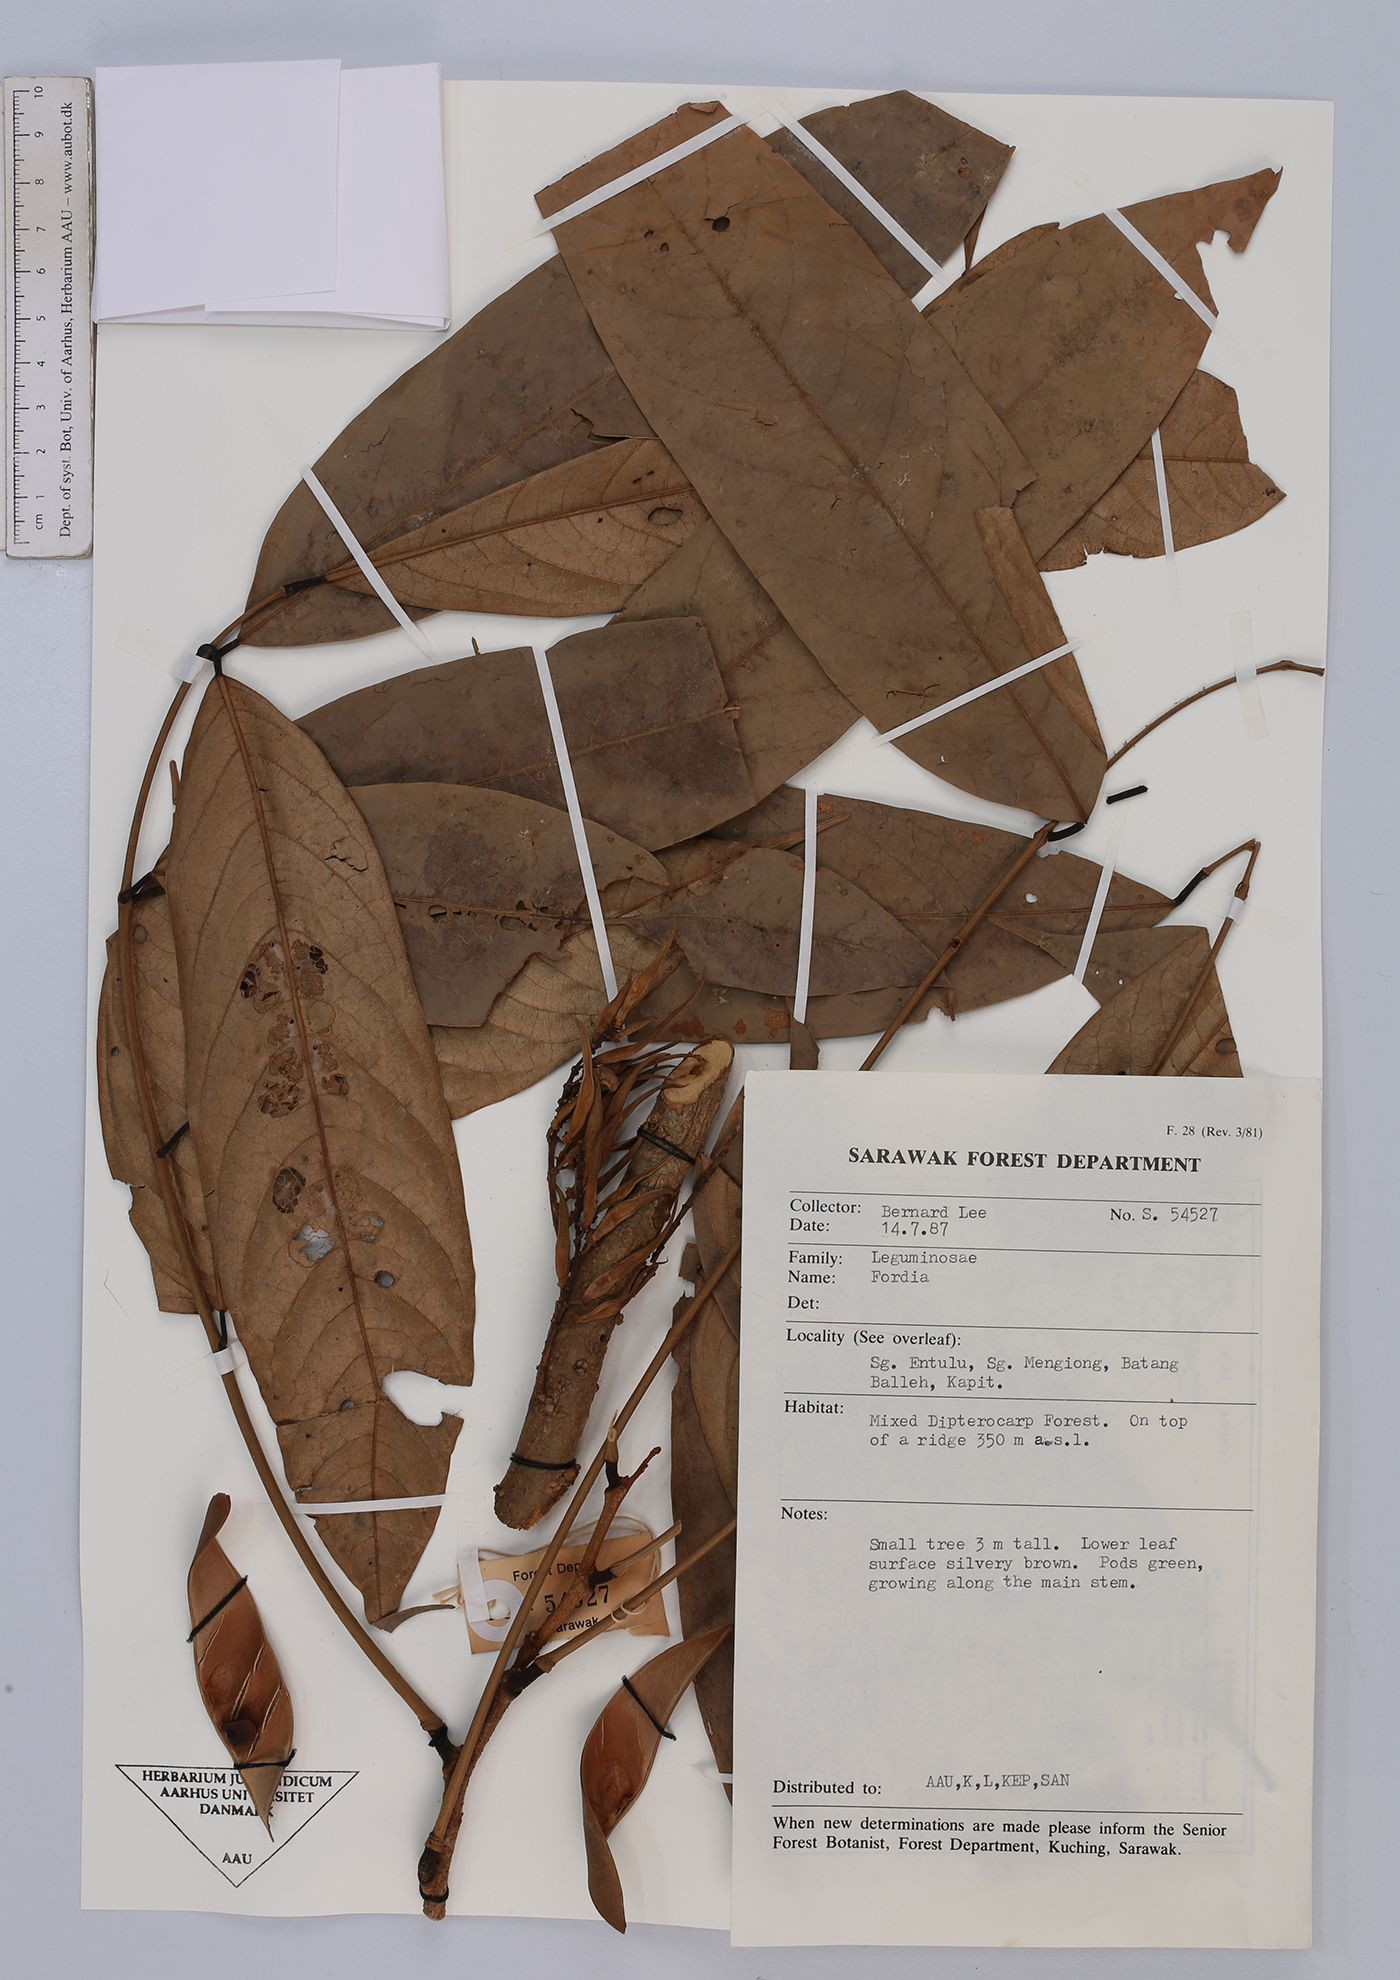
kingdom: Plantae
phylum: Tracheophyta
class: Magnoliopsida
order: Fabales
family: Fabaceae
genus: Fordia
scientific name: Fordia
